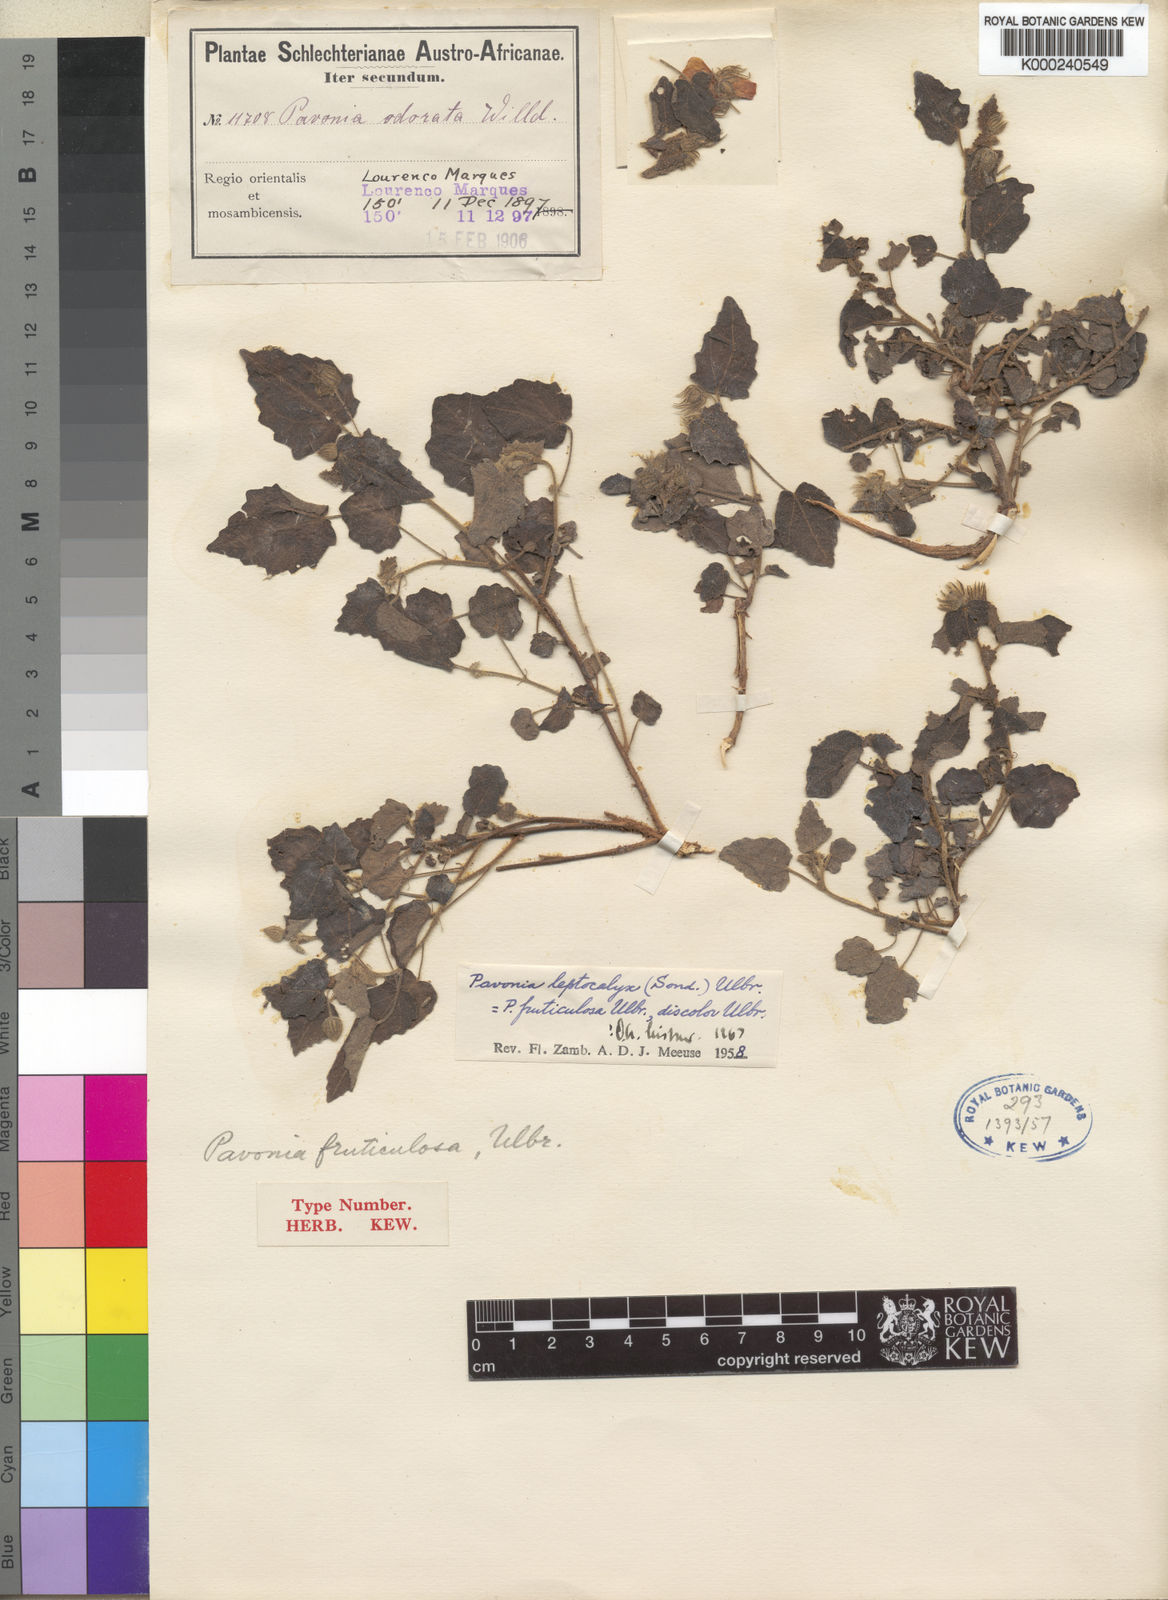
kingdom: Plantae
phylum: Tracheophyta
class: Magnoliopsida
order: Malvales
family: Malvaceae
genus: Pavonia
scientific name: Pavonia leptocalyx
